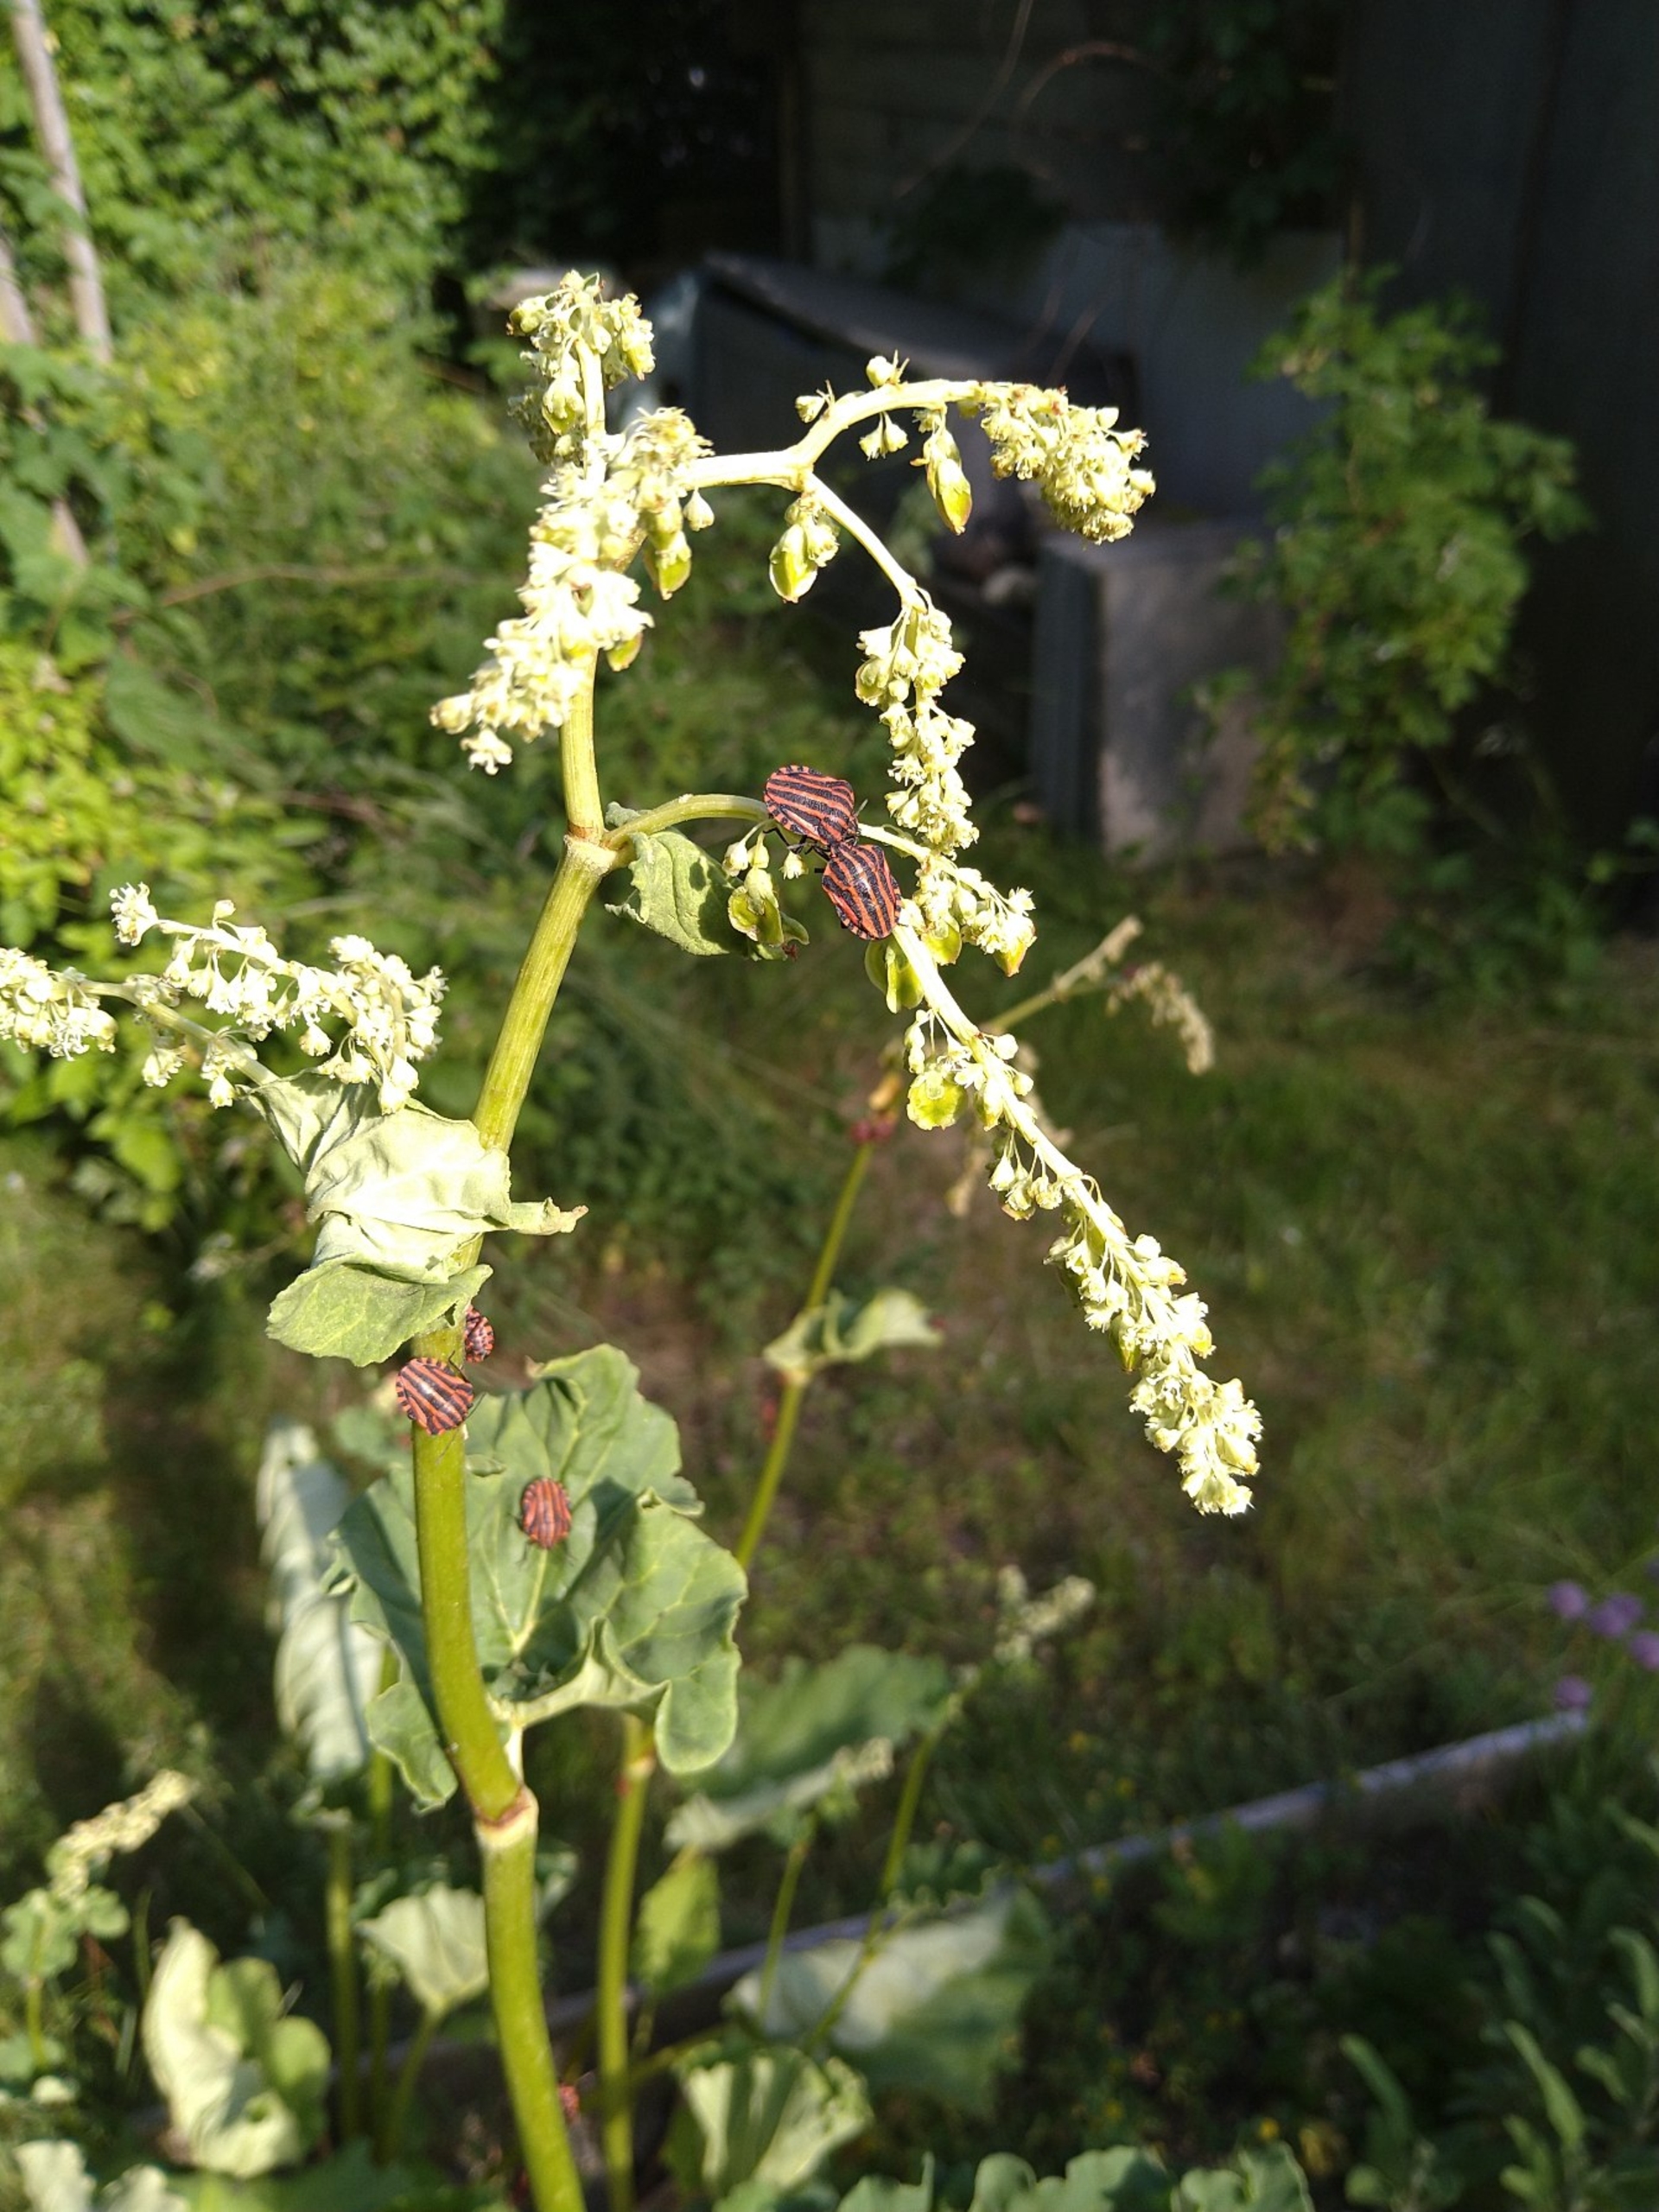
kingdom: Animalia
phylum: Arthropoda
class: Insecta
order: Hemiptera
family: Pentatomidae
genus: Graphosoma
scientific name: Graphosoma italicum
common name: Stribetæge
